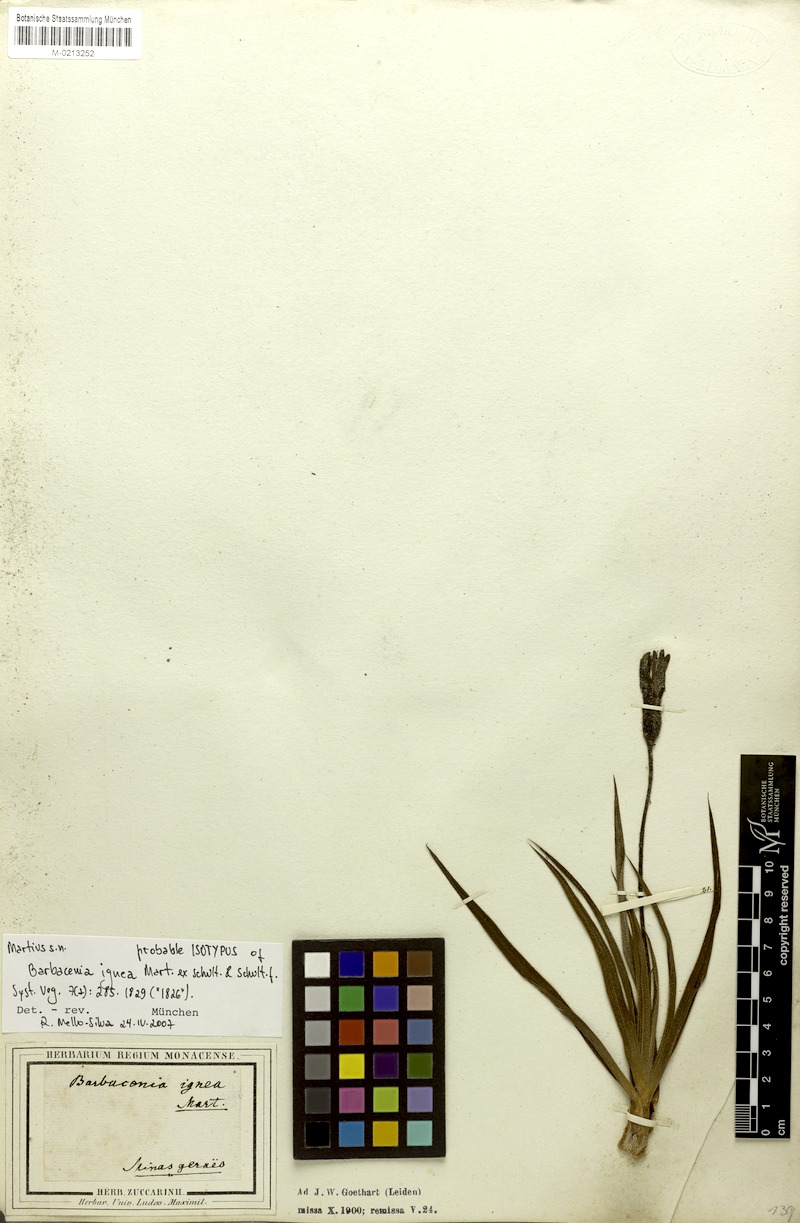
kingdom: Plantae
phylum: Tracheophyta
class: Liliopsida
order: Pandanales
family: Velloziaceae
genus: Barbacenia
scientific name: Barbacenia ignea
